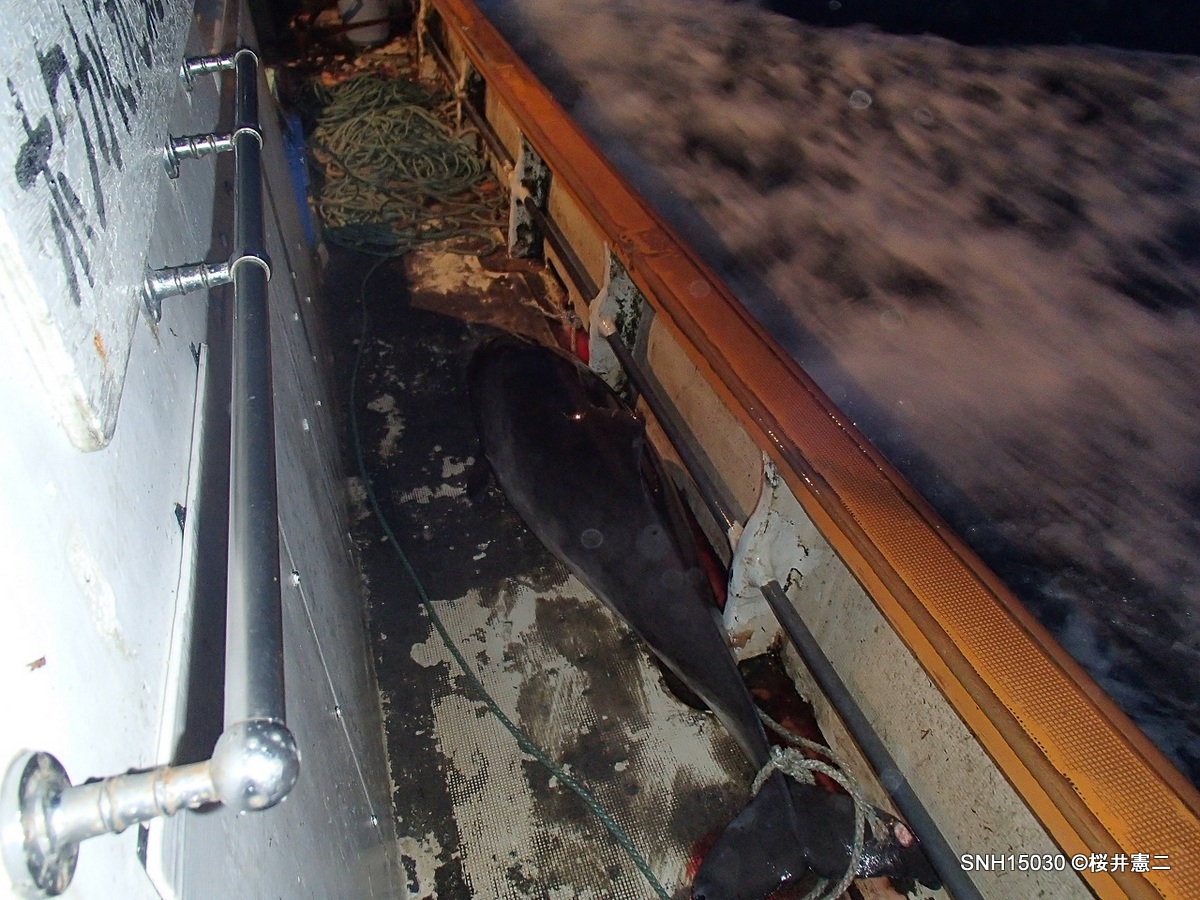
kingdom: Animalia
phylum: Chordata
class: Mammalia
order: Cetacea
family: Phocoenidae
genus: Phocoena
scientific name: Phocoena phocoena
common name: Harbour porpoise
